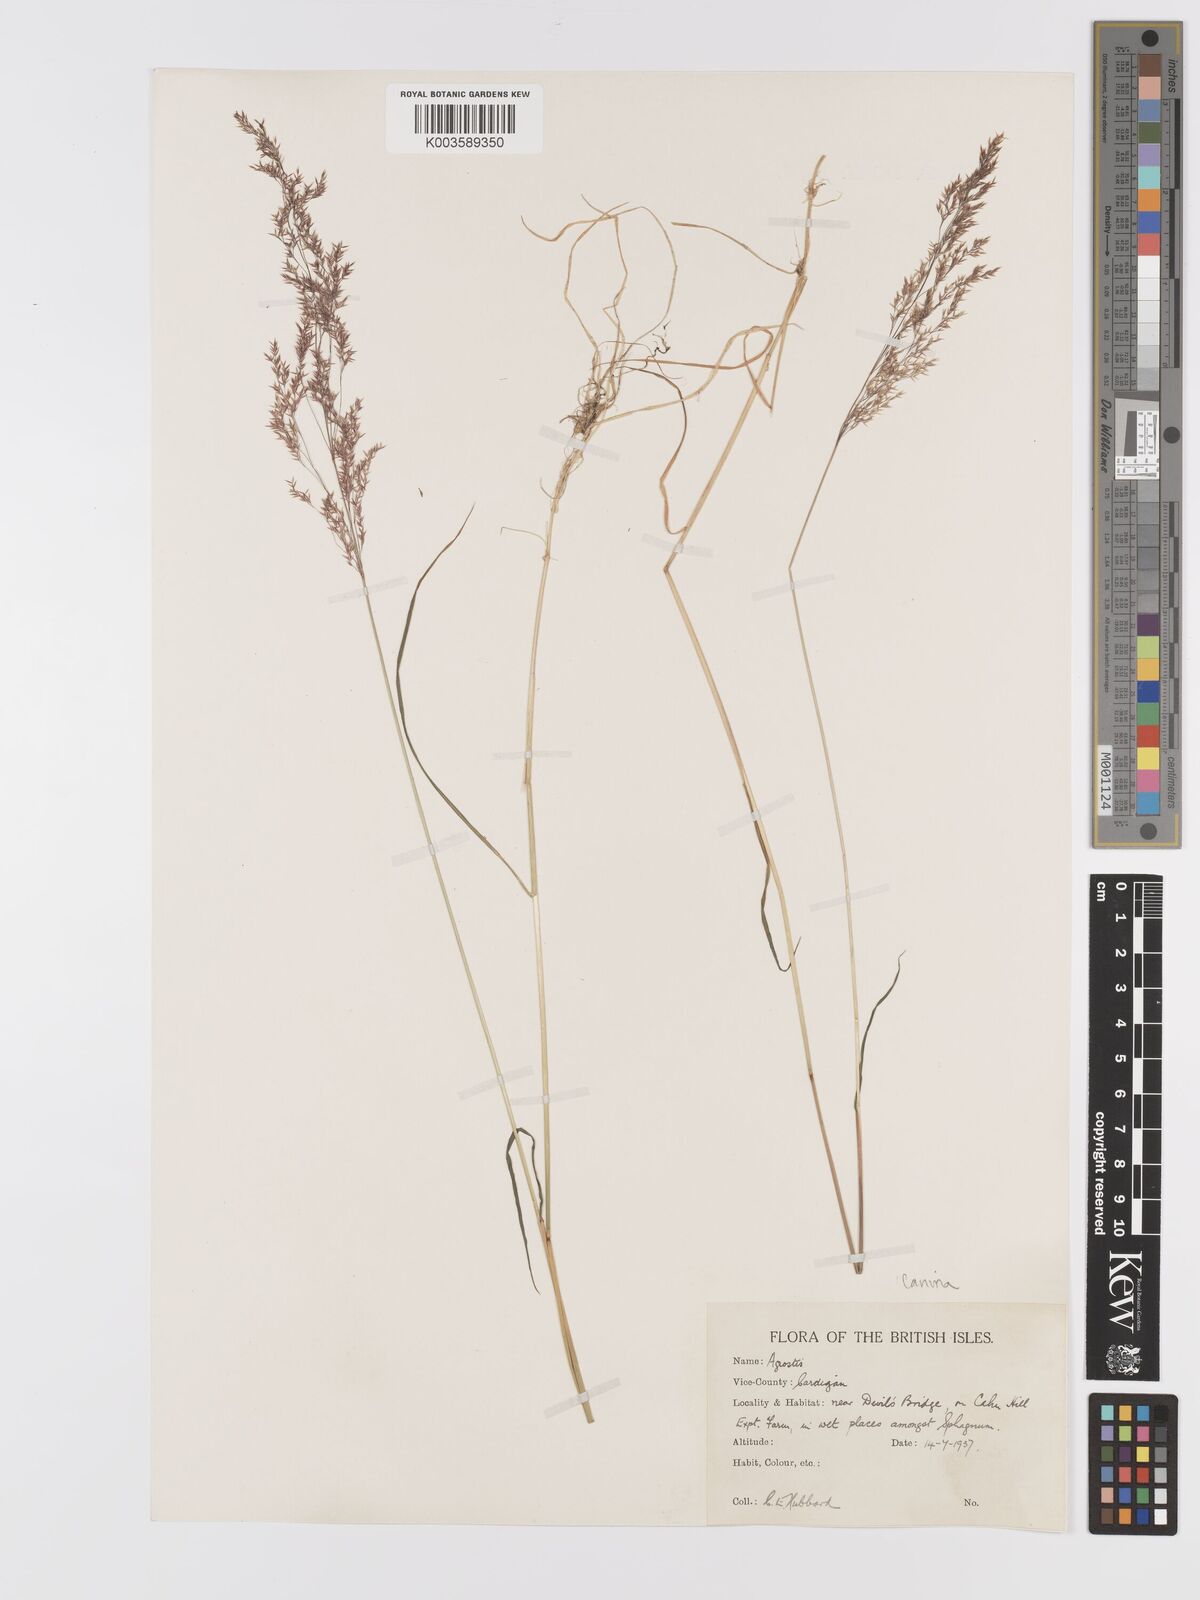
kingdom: Plantae
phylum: Tracheophyta
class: Liliopsida
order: Poales
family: Poaceae
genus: Agrostis
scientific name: Agrostis canina
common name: Velvet bent
